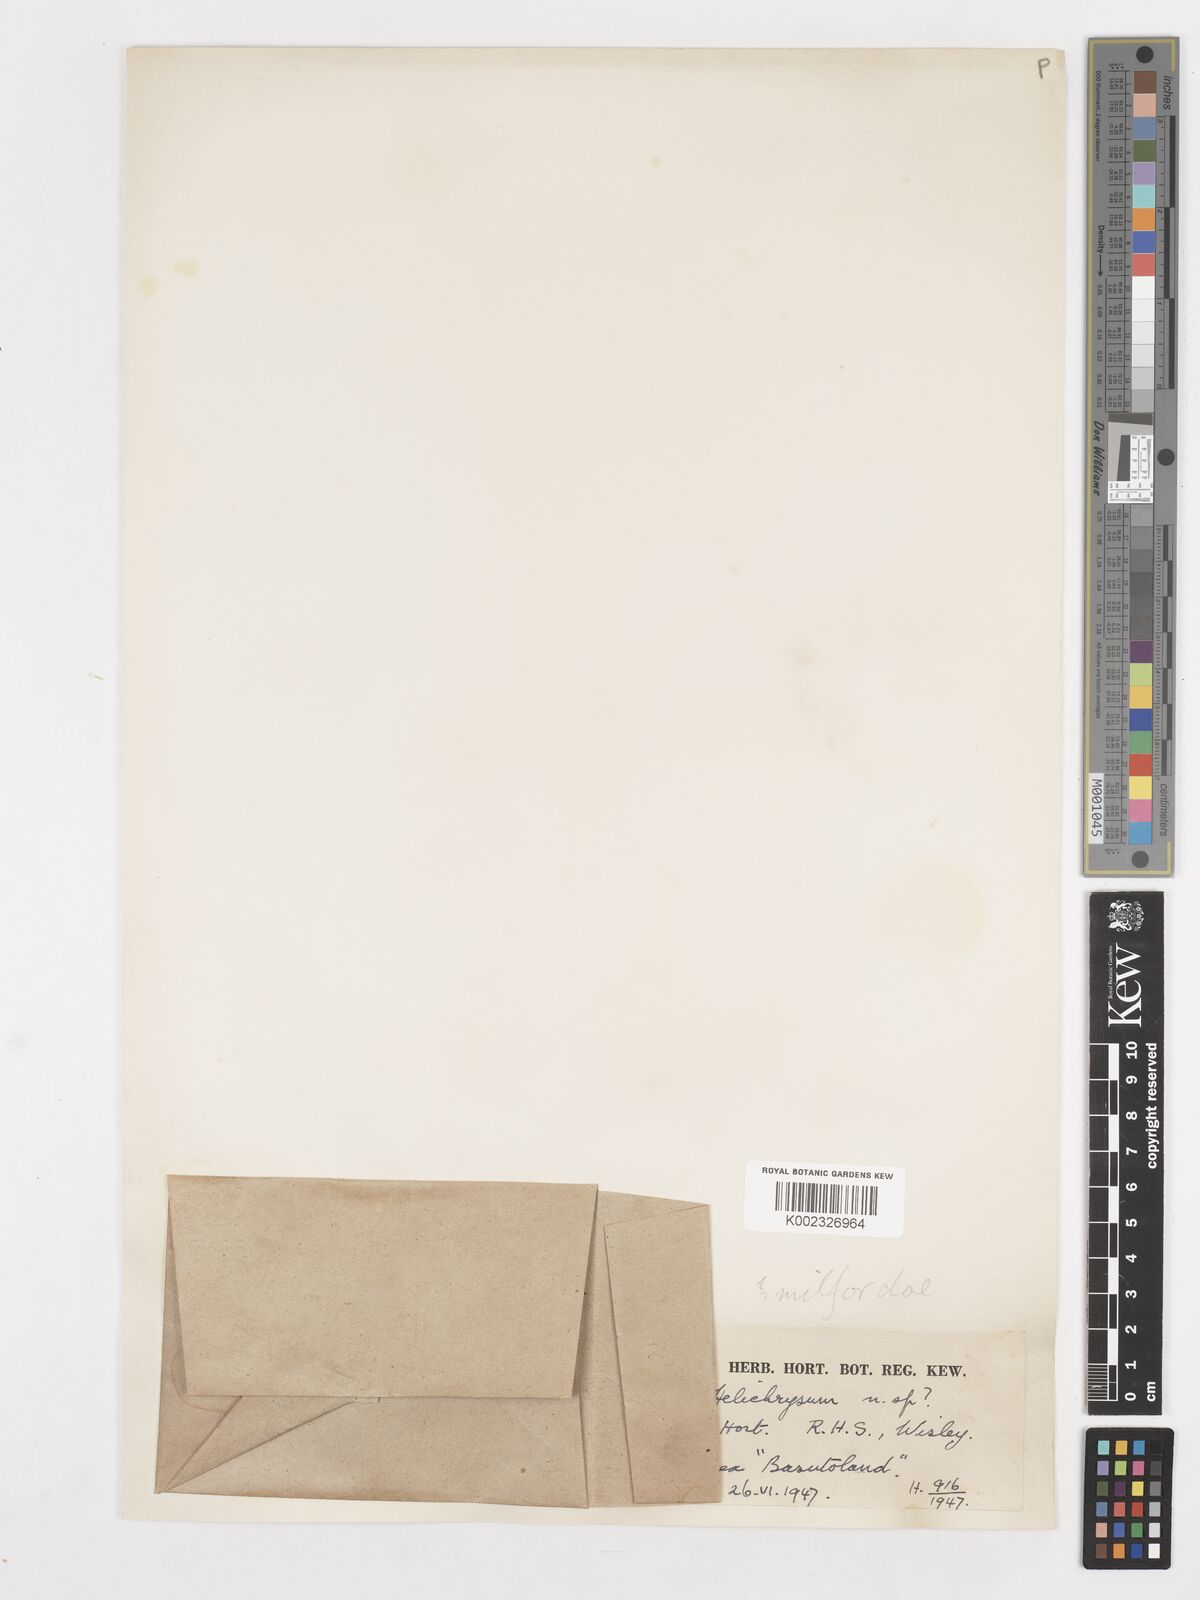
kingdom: Plantae
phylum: Tracheophyta
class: Magnoliopsida
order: Asterales
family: Asteraceae
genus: Helichrysum
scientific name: Helichrysum milfordiae
